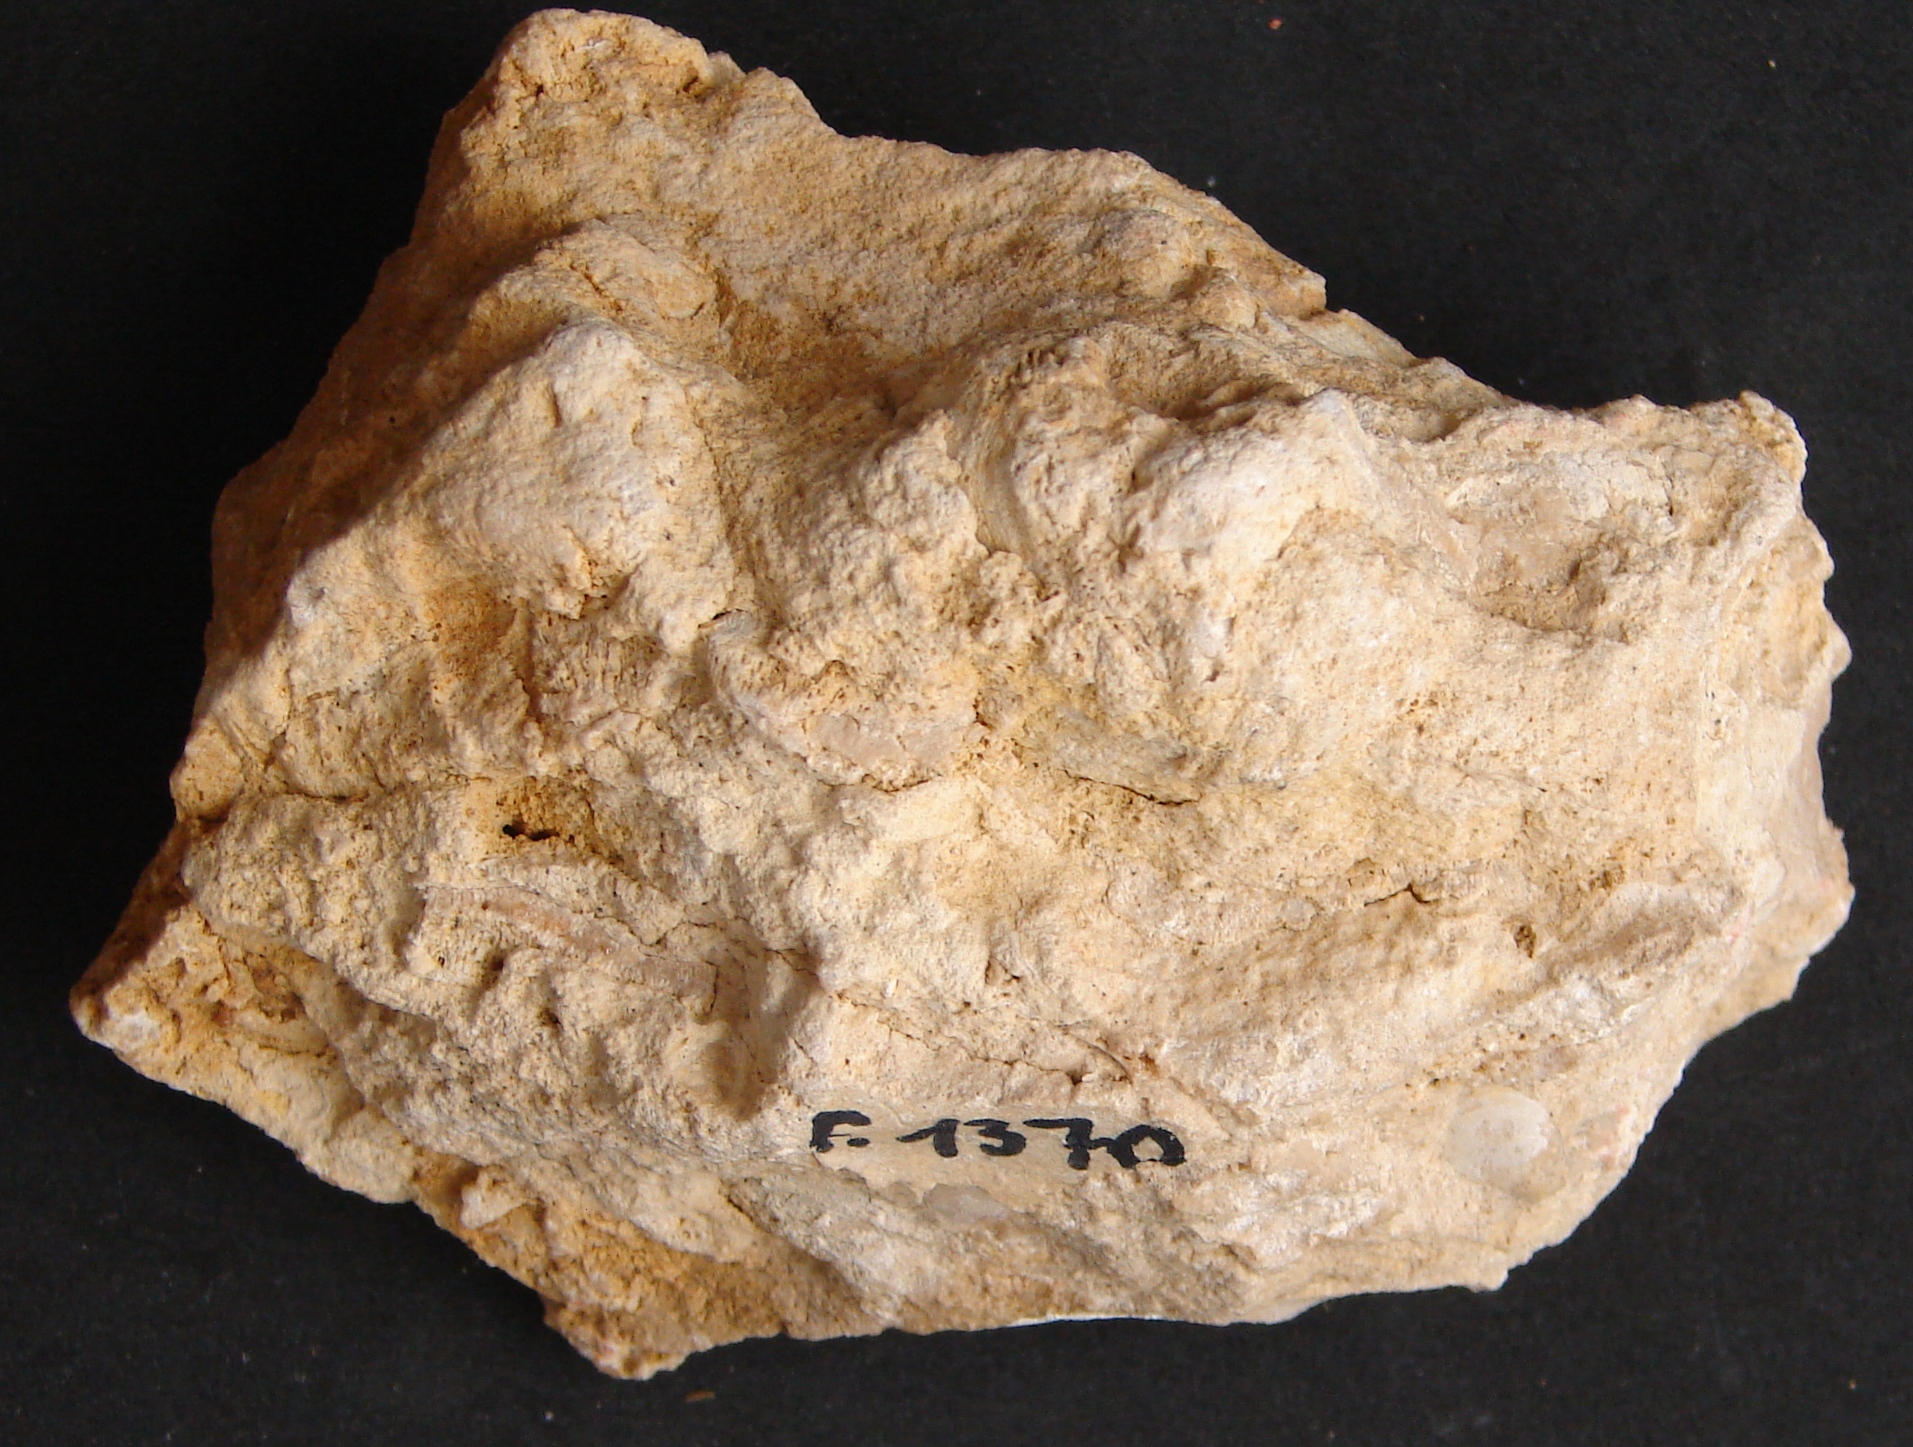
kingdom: Animalia
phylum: Cnidaria
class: Anthozoa
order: Scleractinia
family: Latomeandridae
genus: Periseris
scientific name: Periseris elegantula
